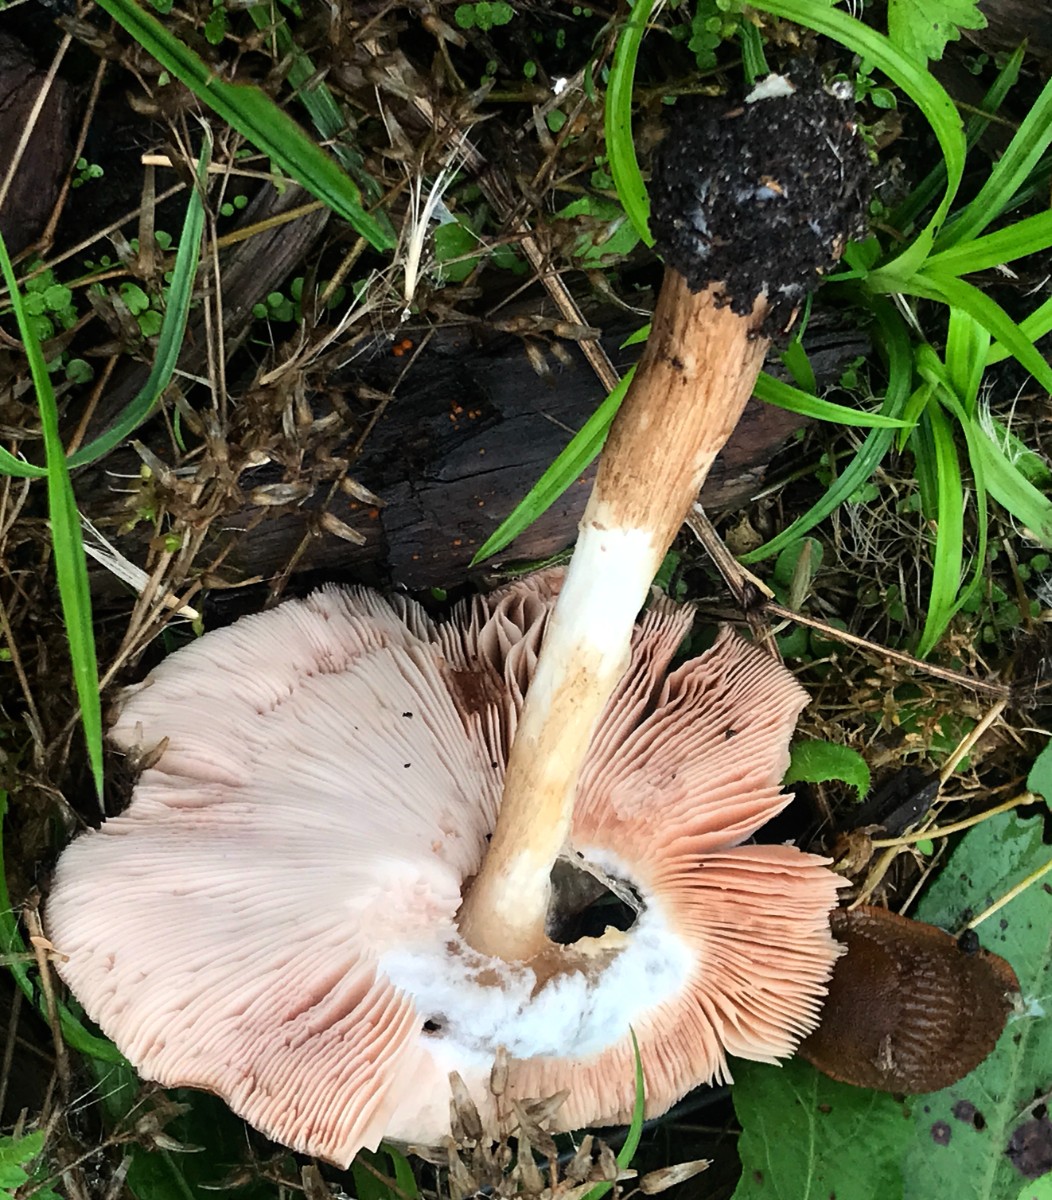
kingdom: Fungi
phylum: Basidiomycota
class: Agaricomycetes
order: Agaricales
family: Pluteaceae
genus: Pluteus
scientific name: Pluteus cervinus
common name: sodfarvet skærmhat
